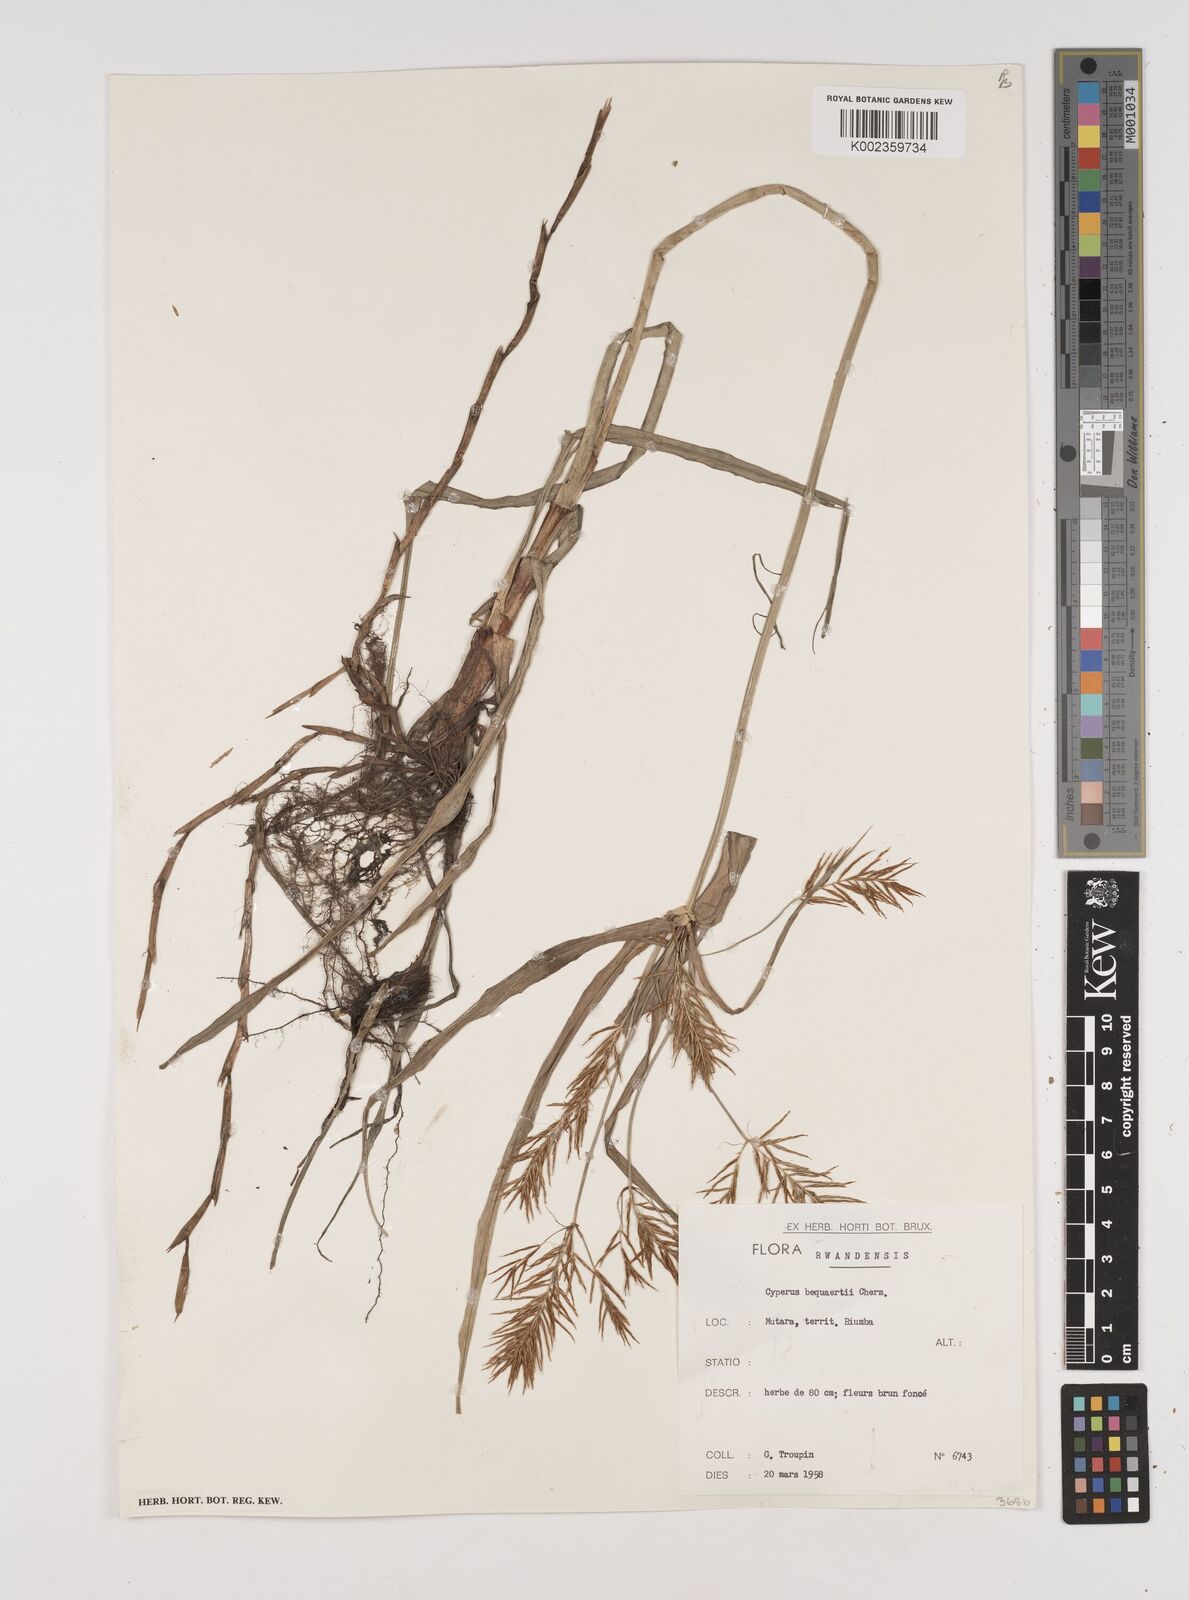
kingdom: Plantae
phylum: Tracheophyta
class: Liliopsida
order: Poales
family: Cyperaceae
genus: Cyperus
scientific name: Cyperus ferrugineoviridis
